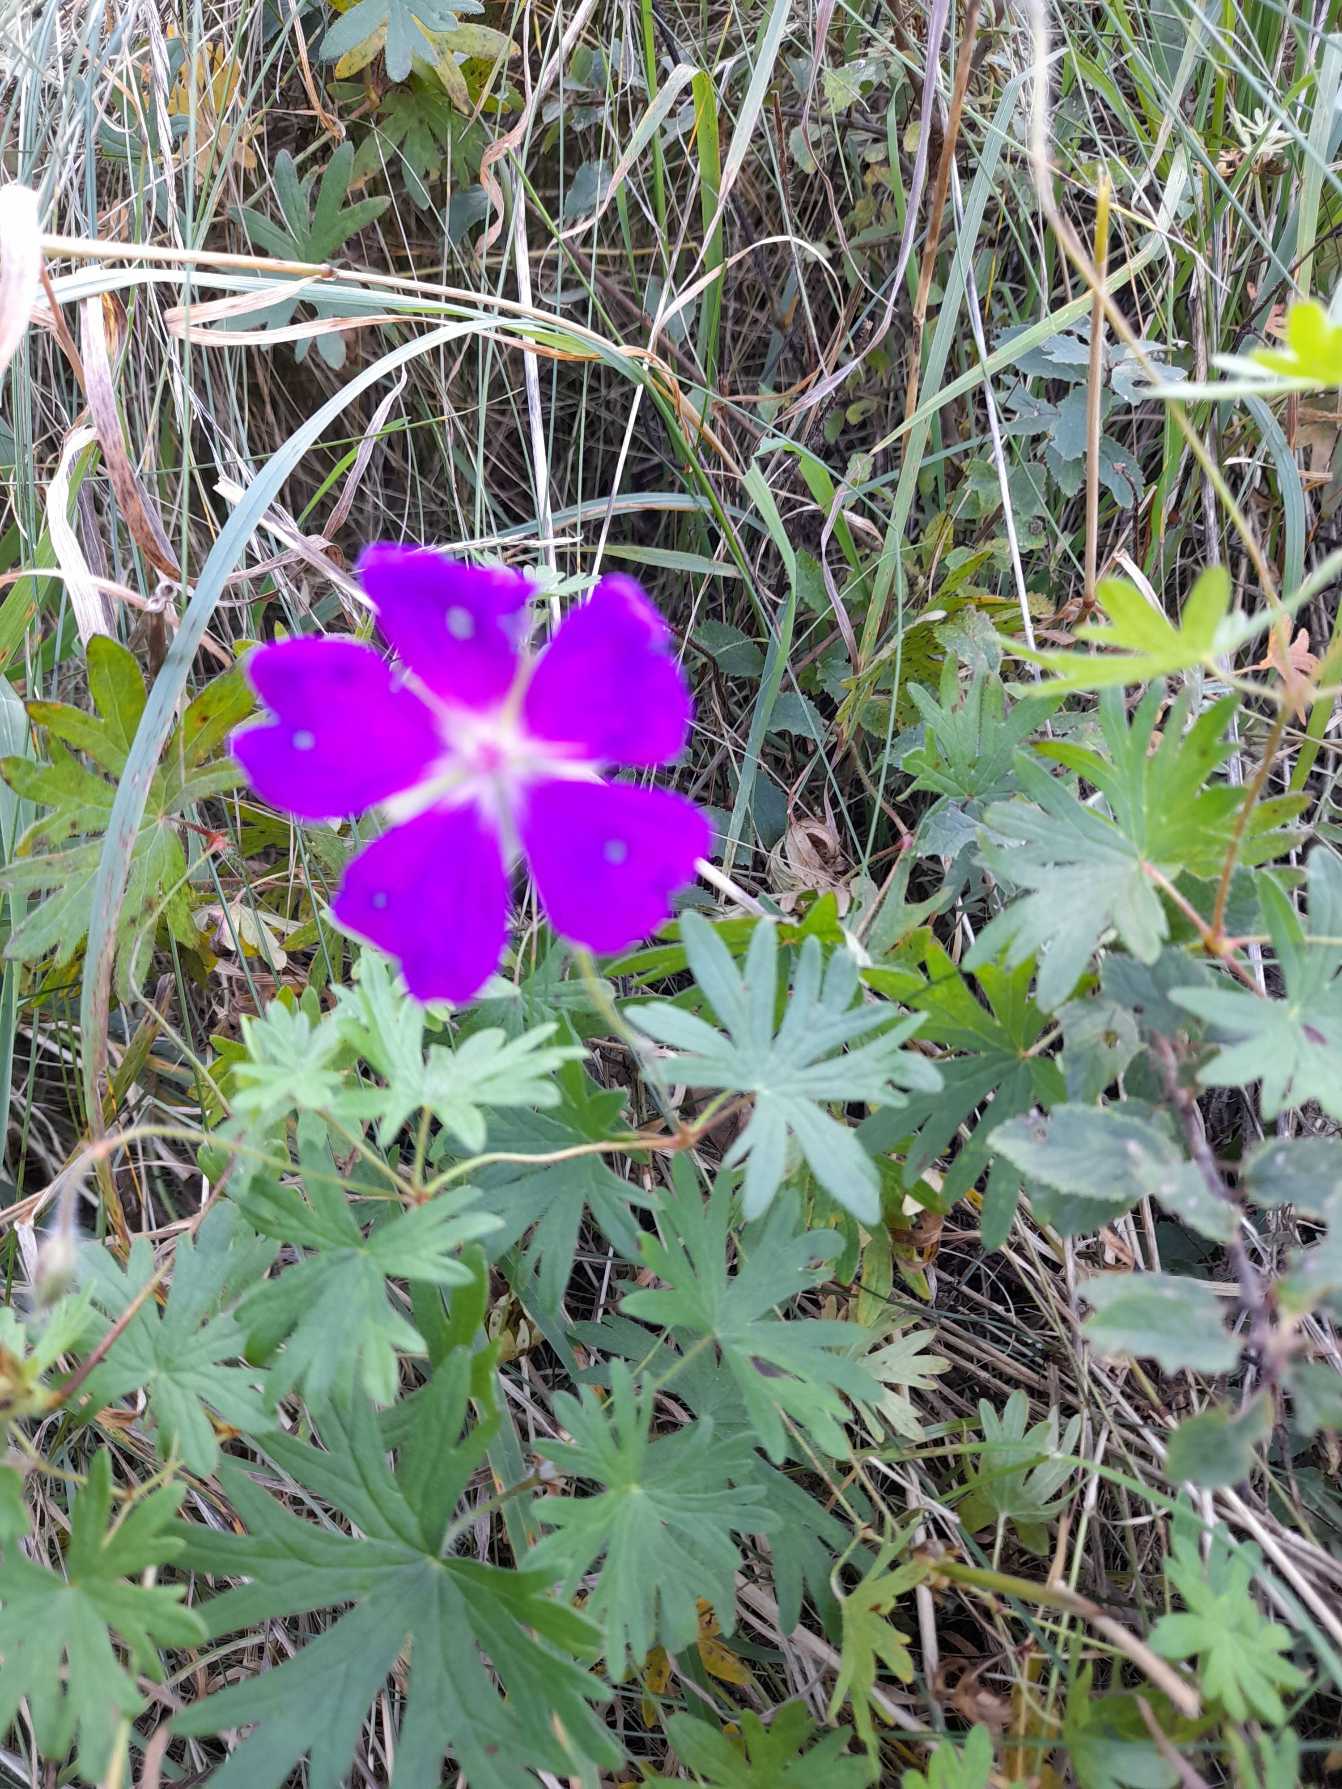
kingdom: Plantae
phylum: Tracheophyta
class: Magnoliopsida
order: Geraniales
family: Geraniaceae
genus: Geranium
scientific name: Geranium sanguineum
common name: Blodrød storkenæb
